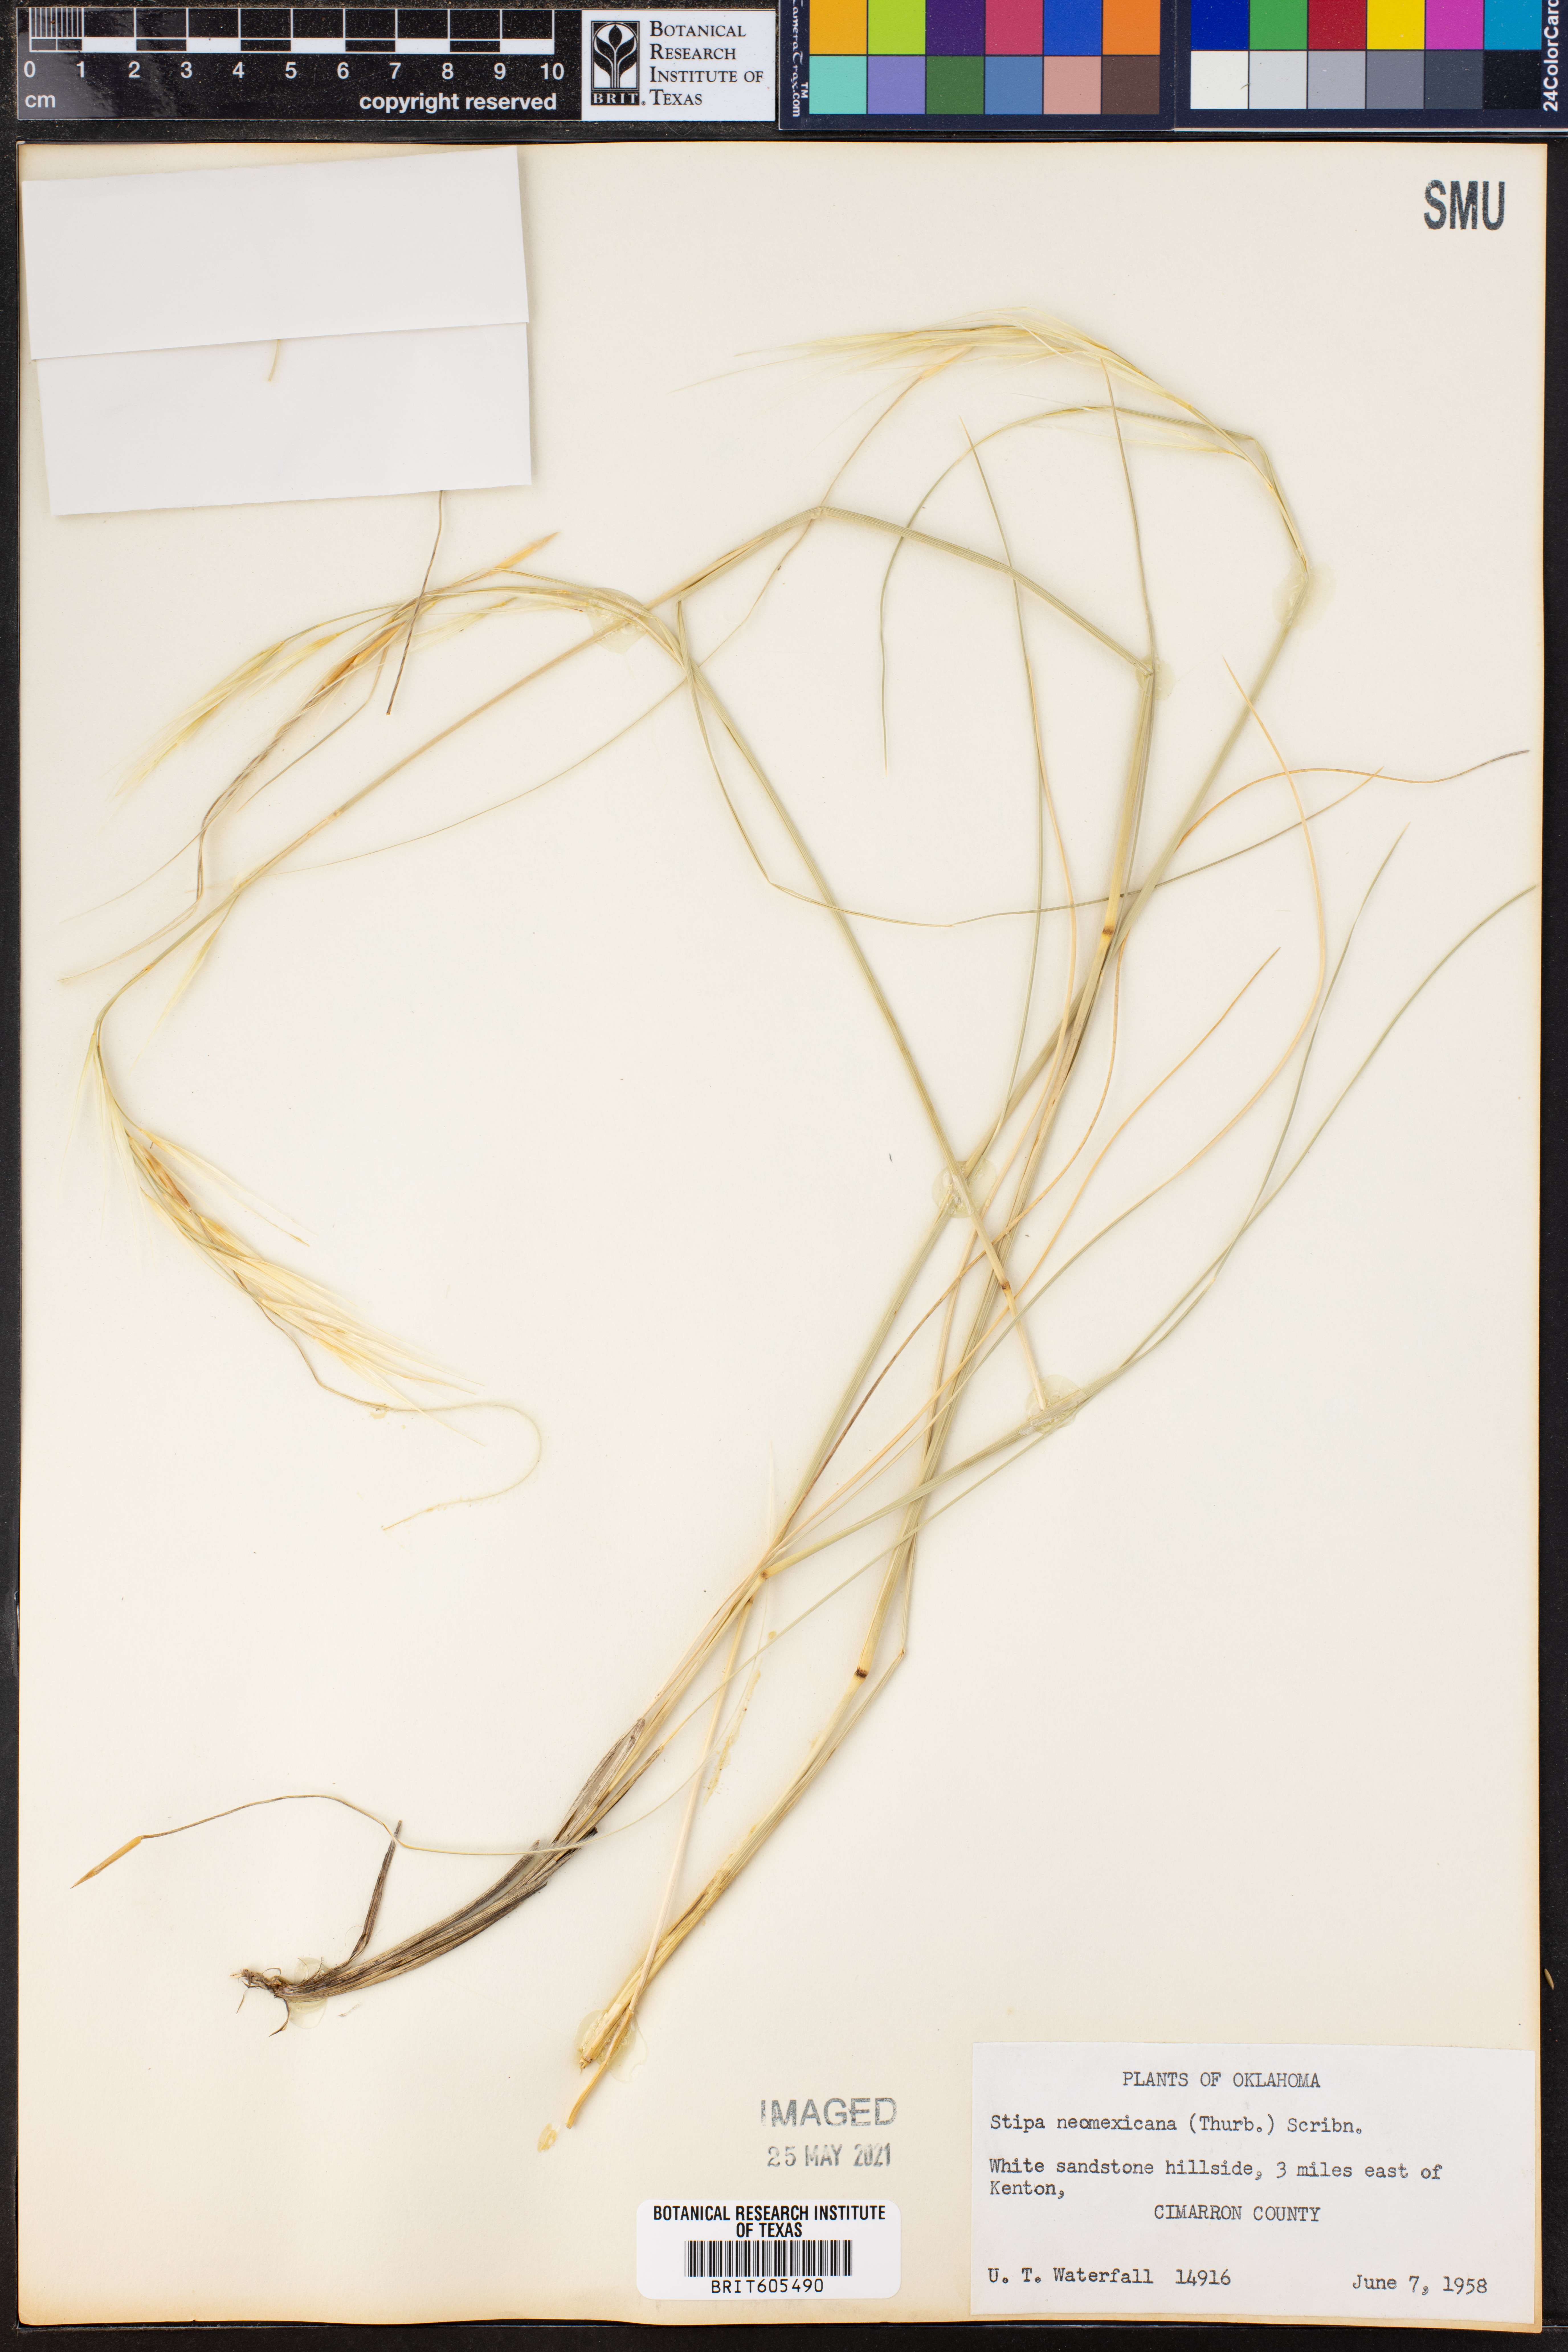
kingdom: Plantae
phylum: Tracheophyta
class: Liliopsida
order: Poales
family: Poaceae
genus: Hesperostipa
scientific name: Hesperostipa neomexicana
